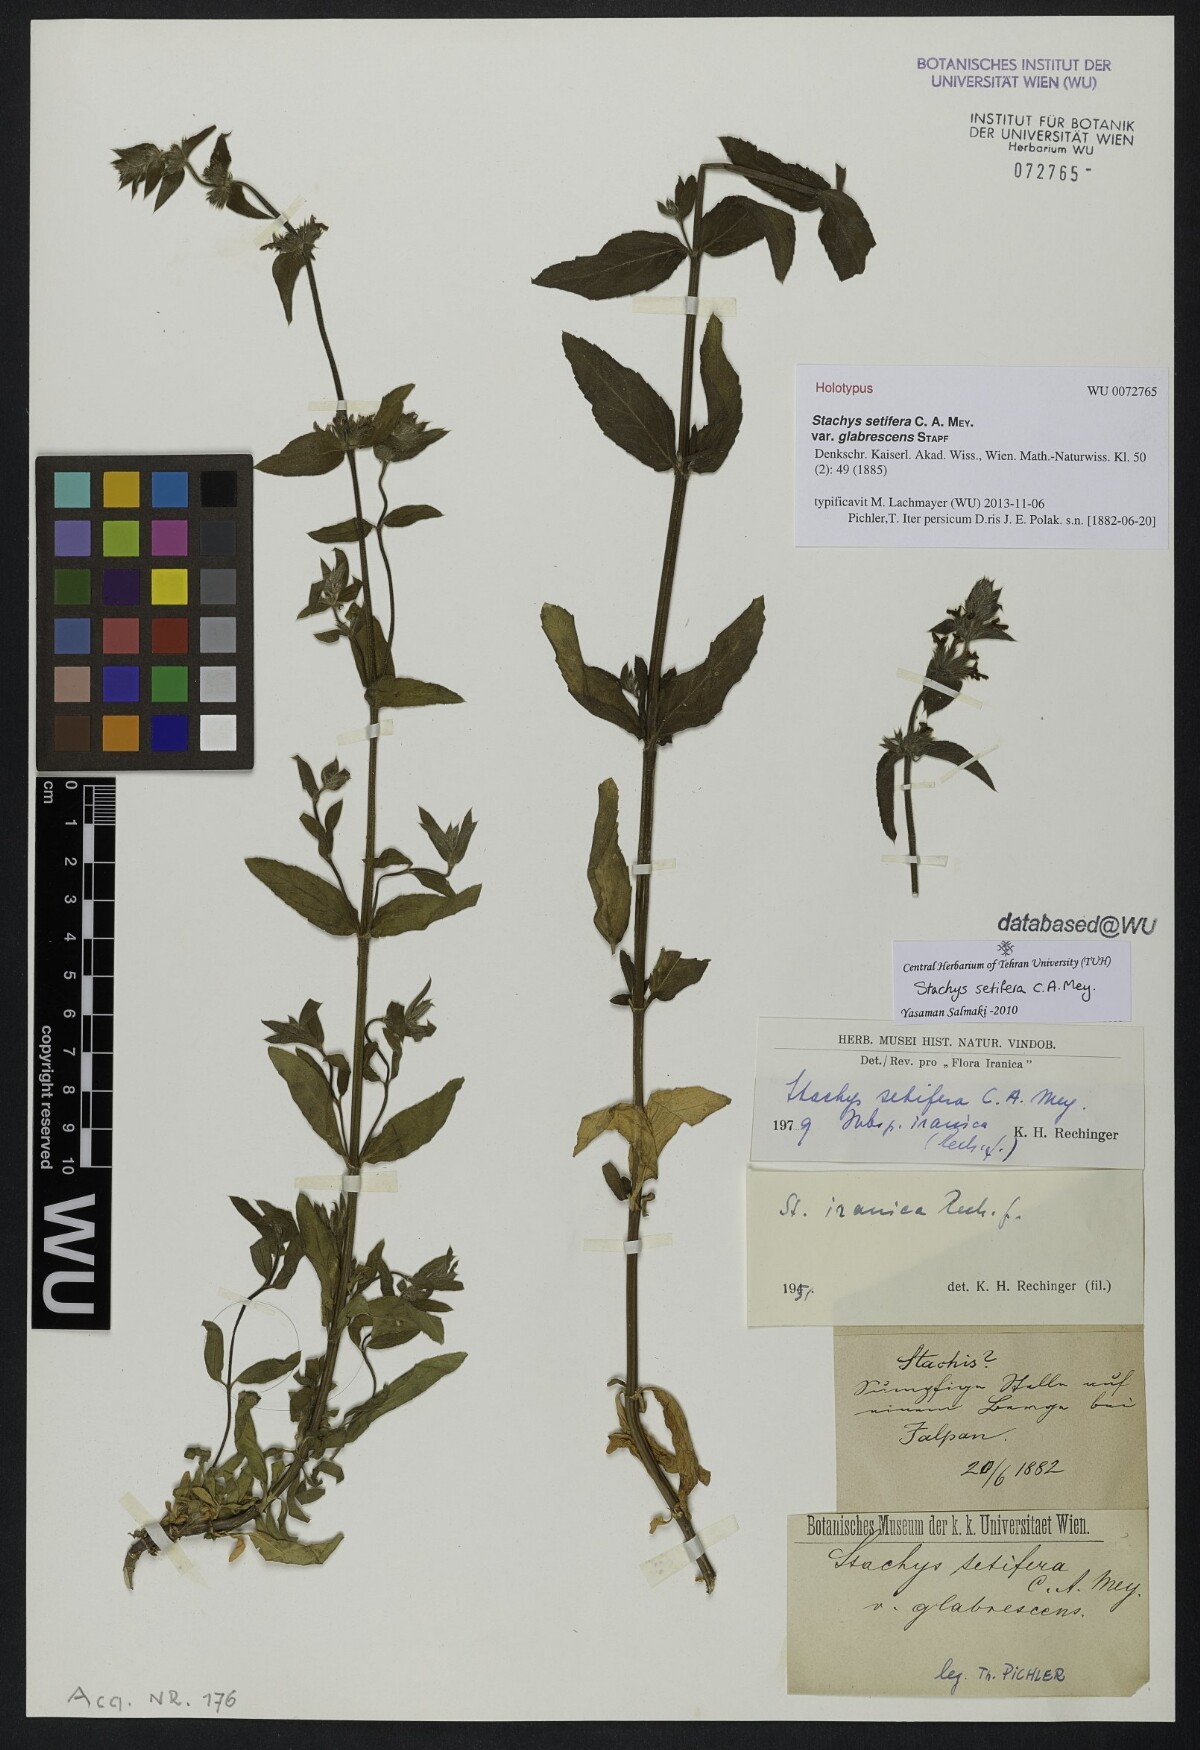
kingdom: Plantae
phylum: Tracheophyta
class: Magnoliopsida
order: Lamiales
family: Lamiaceae
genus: Stachys
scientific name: Stachys setifera
